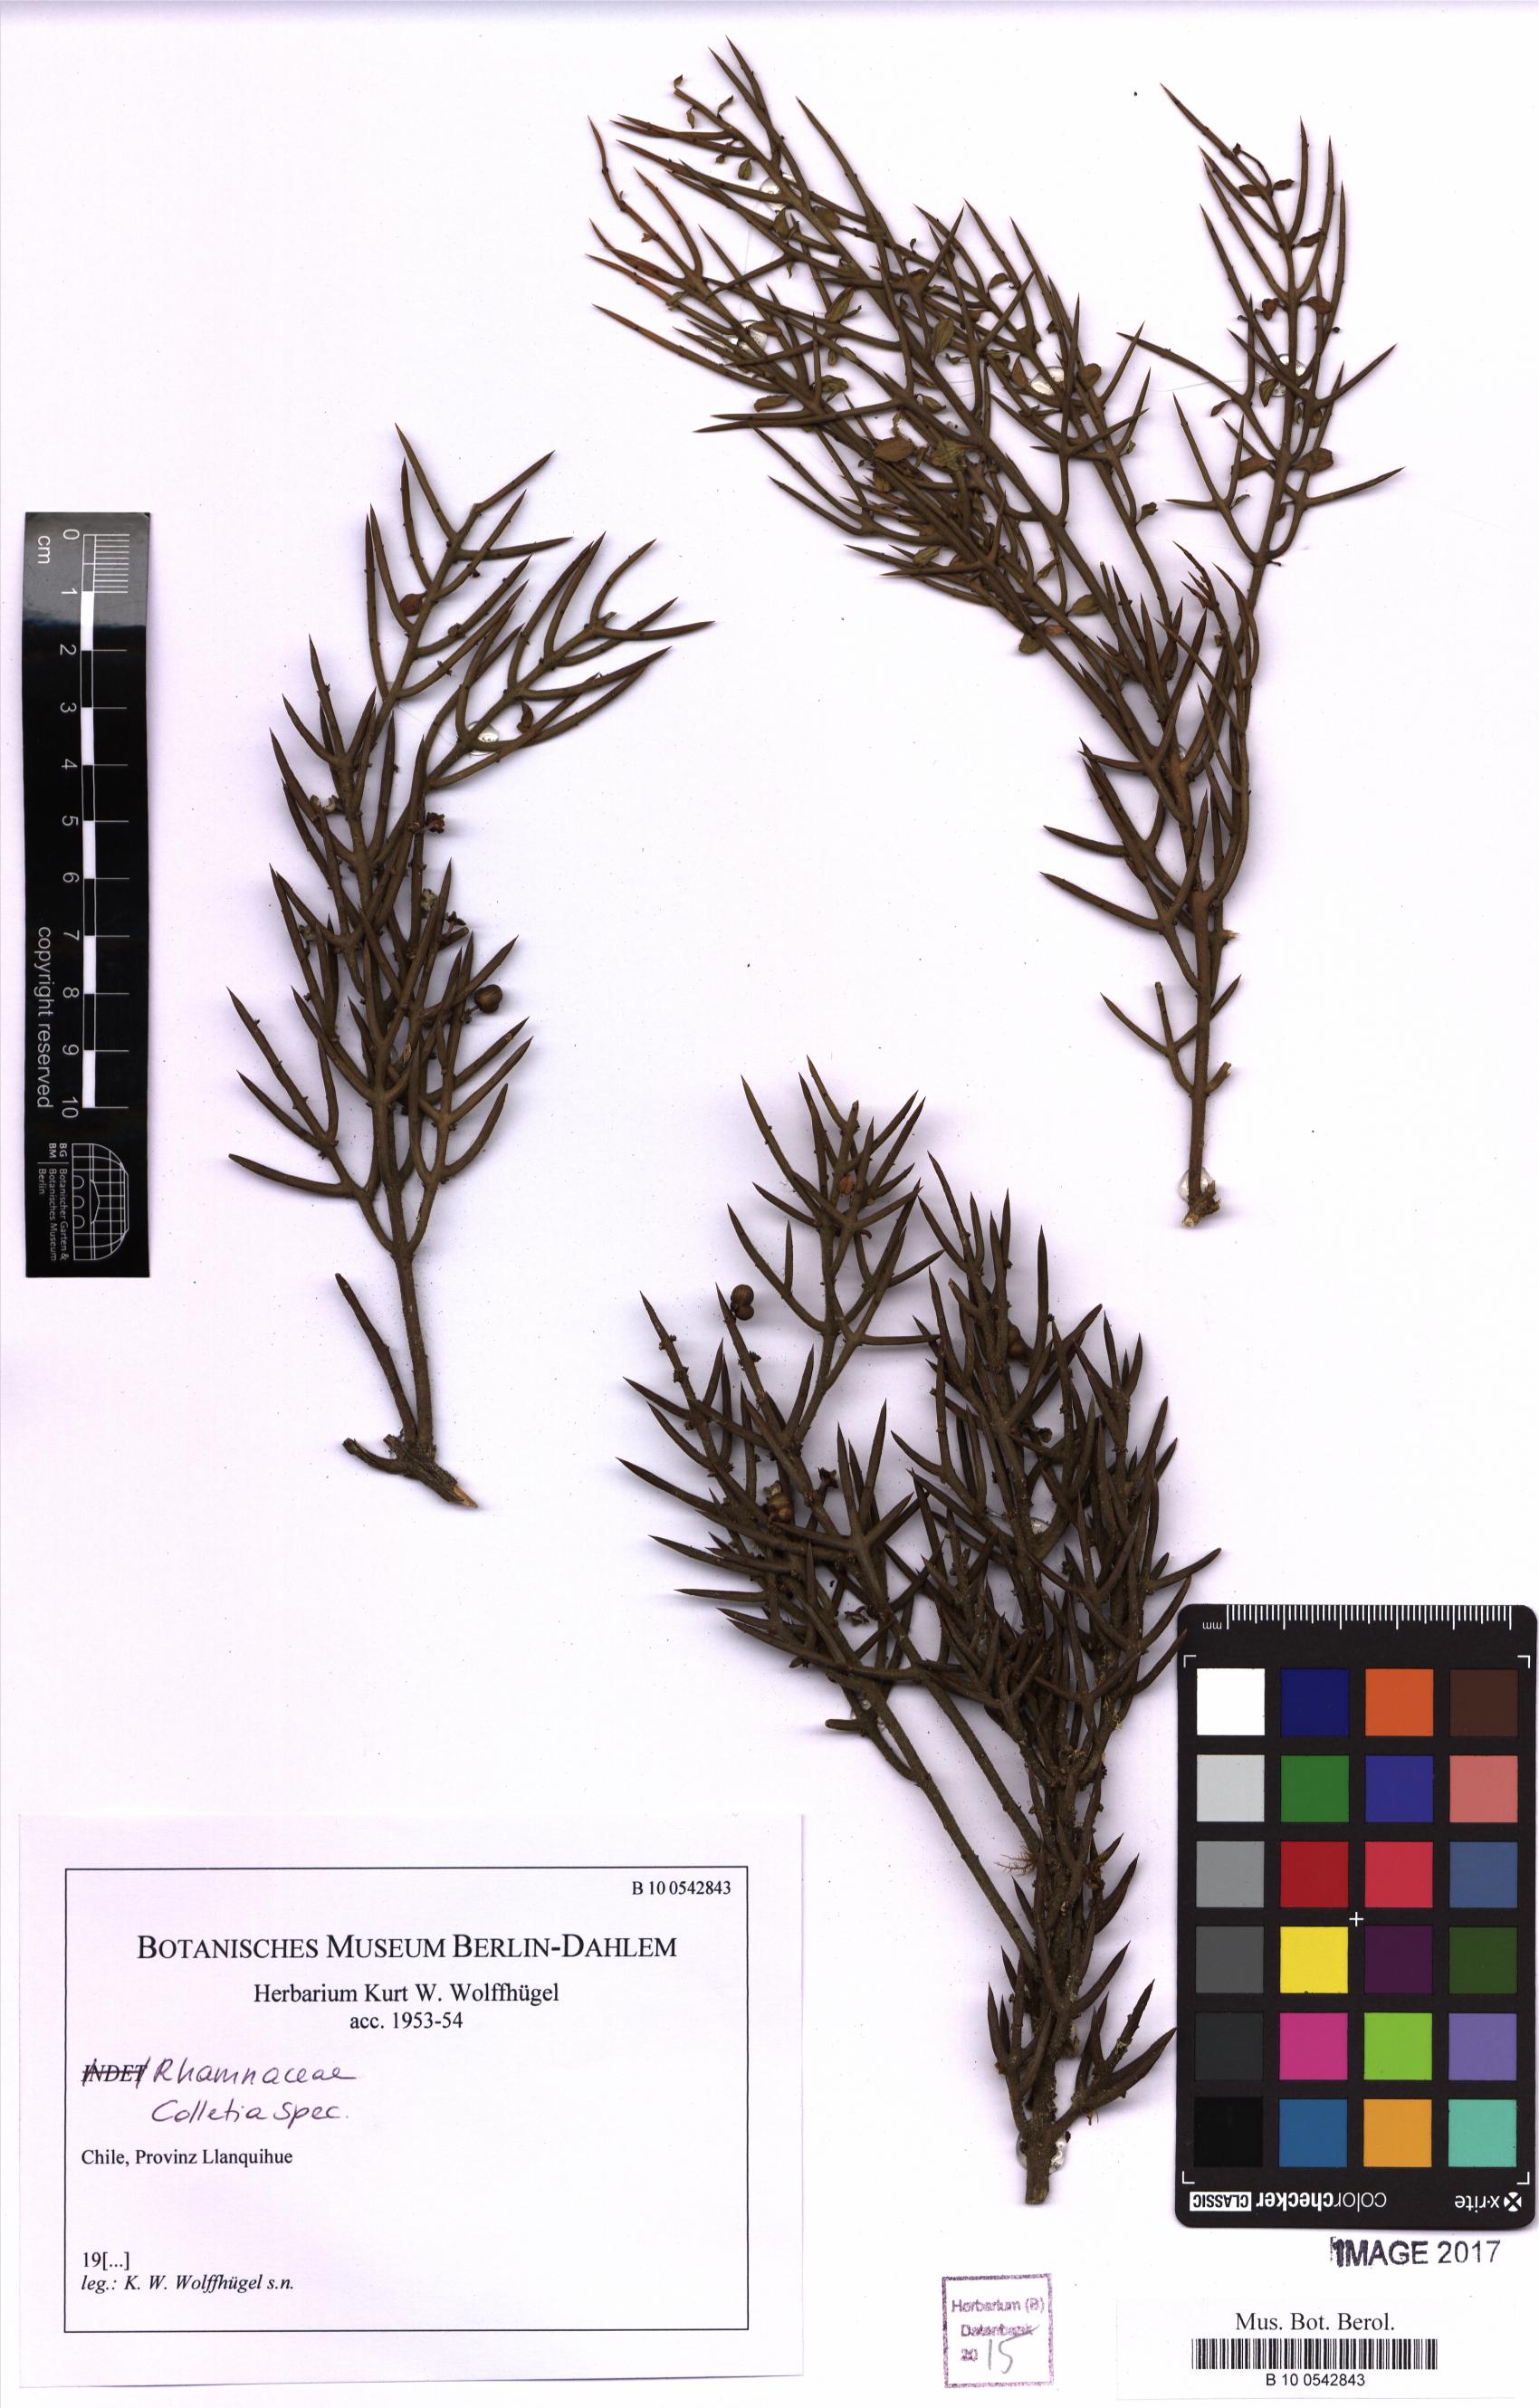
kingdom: Plantae
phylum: Tracheophyta
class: Magnoliopsida
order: Rosales
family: Rhamnaceae
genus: Colletia
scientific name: Colletia
